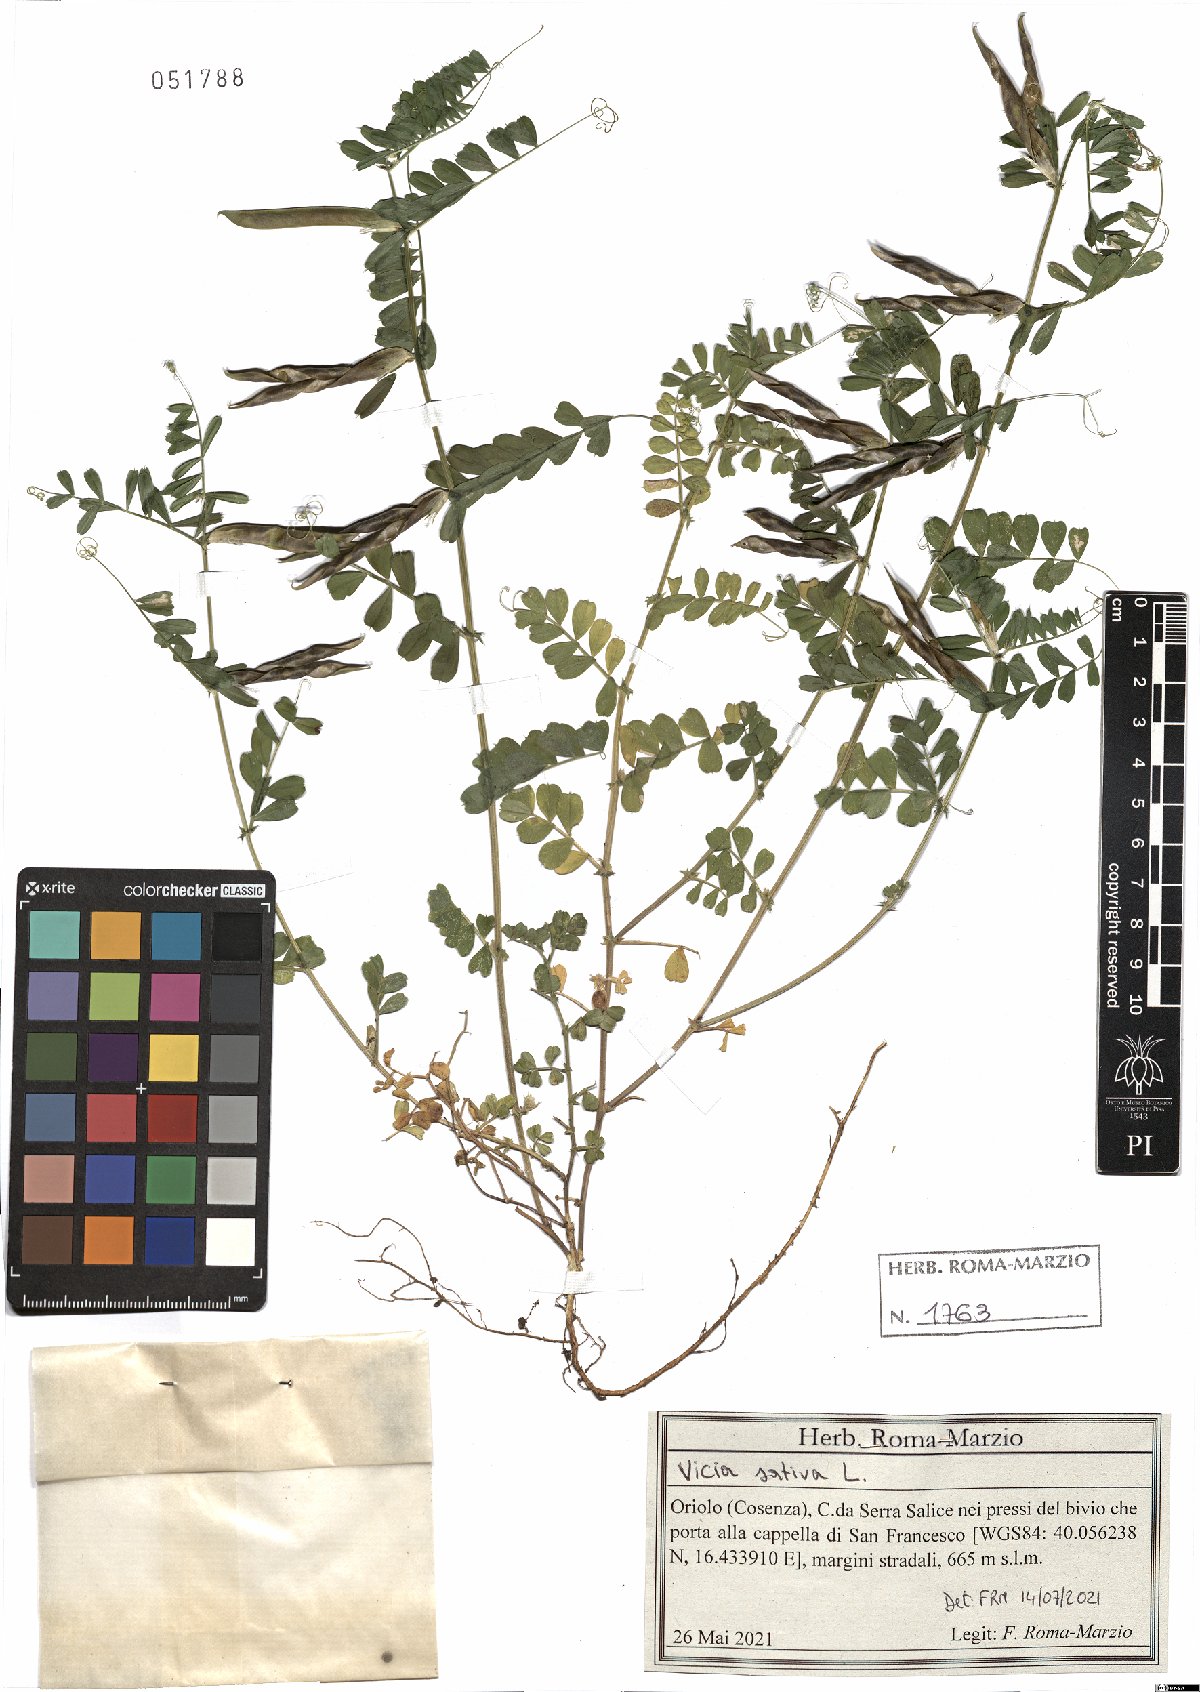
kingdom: Plantae
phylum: Tracheophyta
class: Magnoliopsida
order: Fabales
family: Fabaceae
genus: Vicia
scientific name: Vicia sativa
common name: Garden vetch
